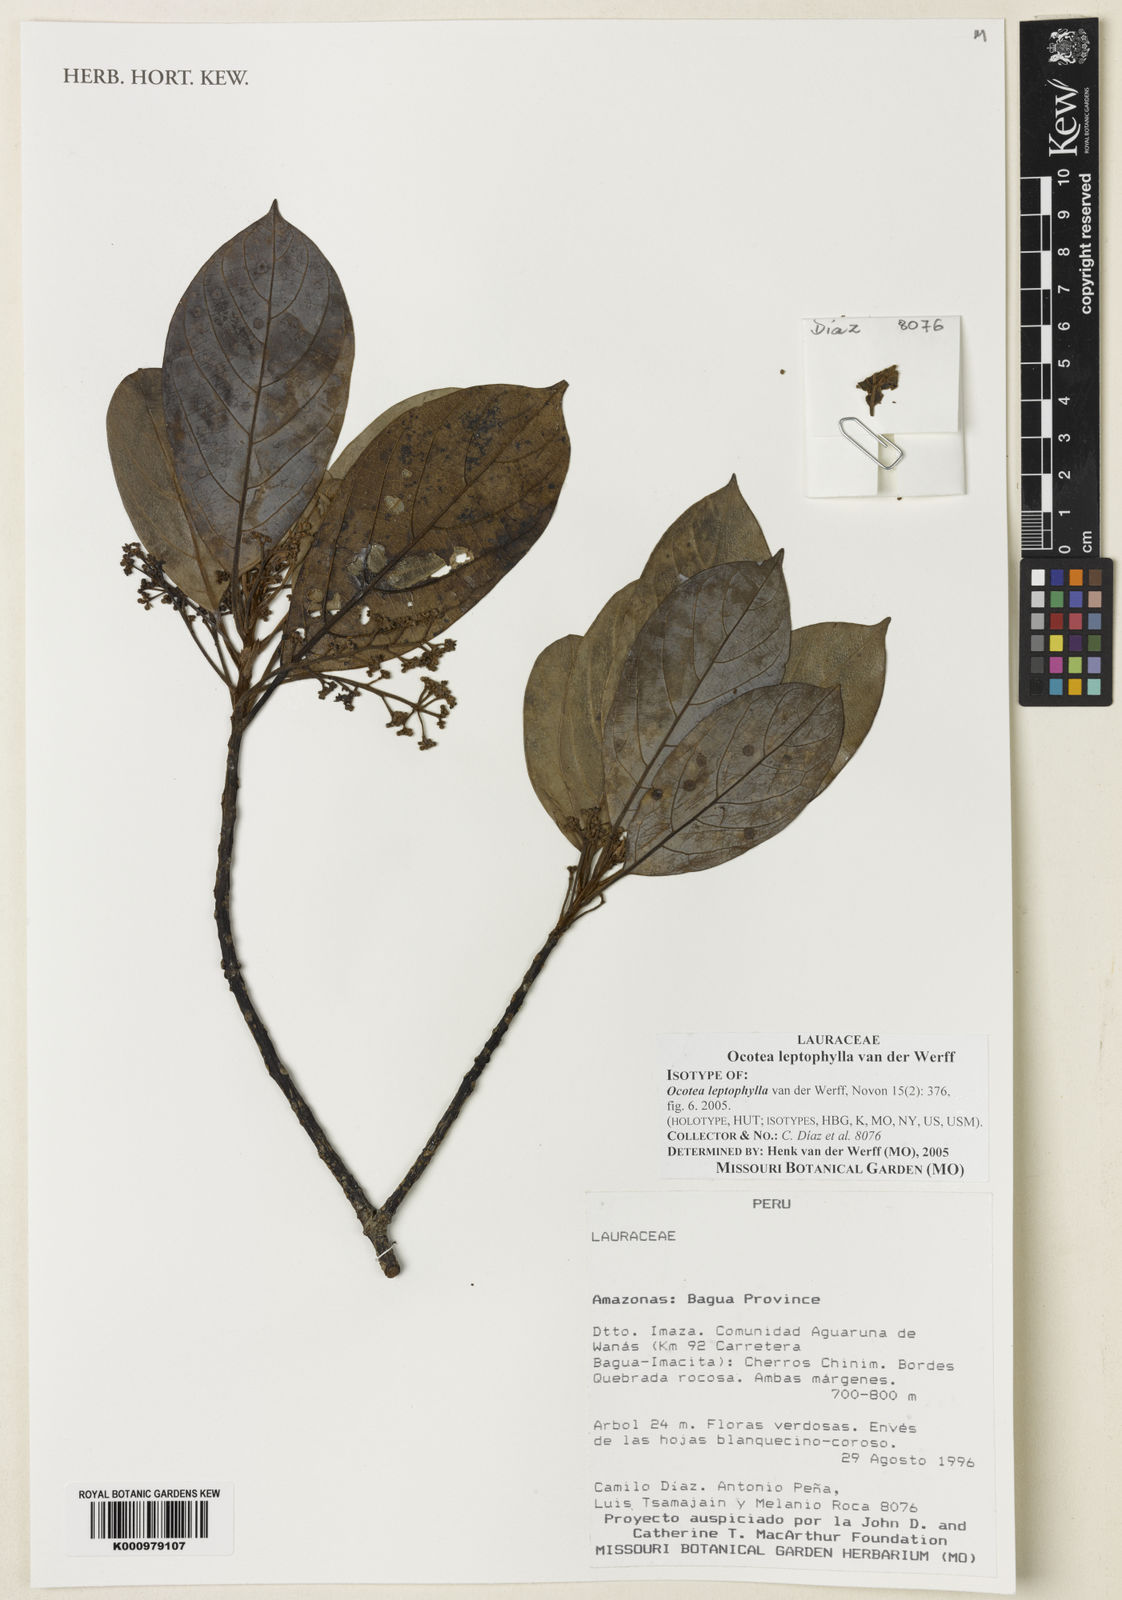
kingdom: Plantae
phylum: Tracheophyta
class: Magnoliopsida
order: Laurales
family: Lauraceae
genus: Ocotea
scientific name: Ocotea leptophylla
